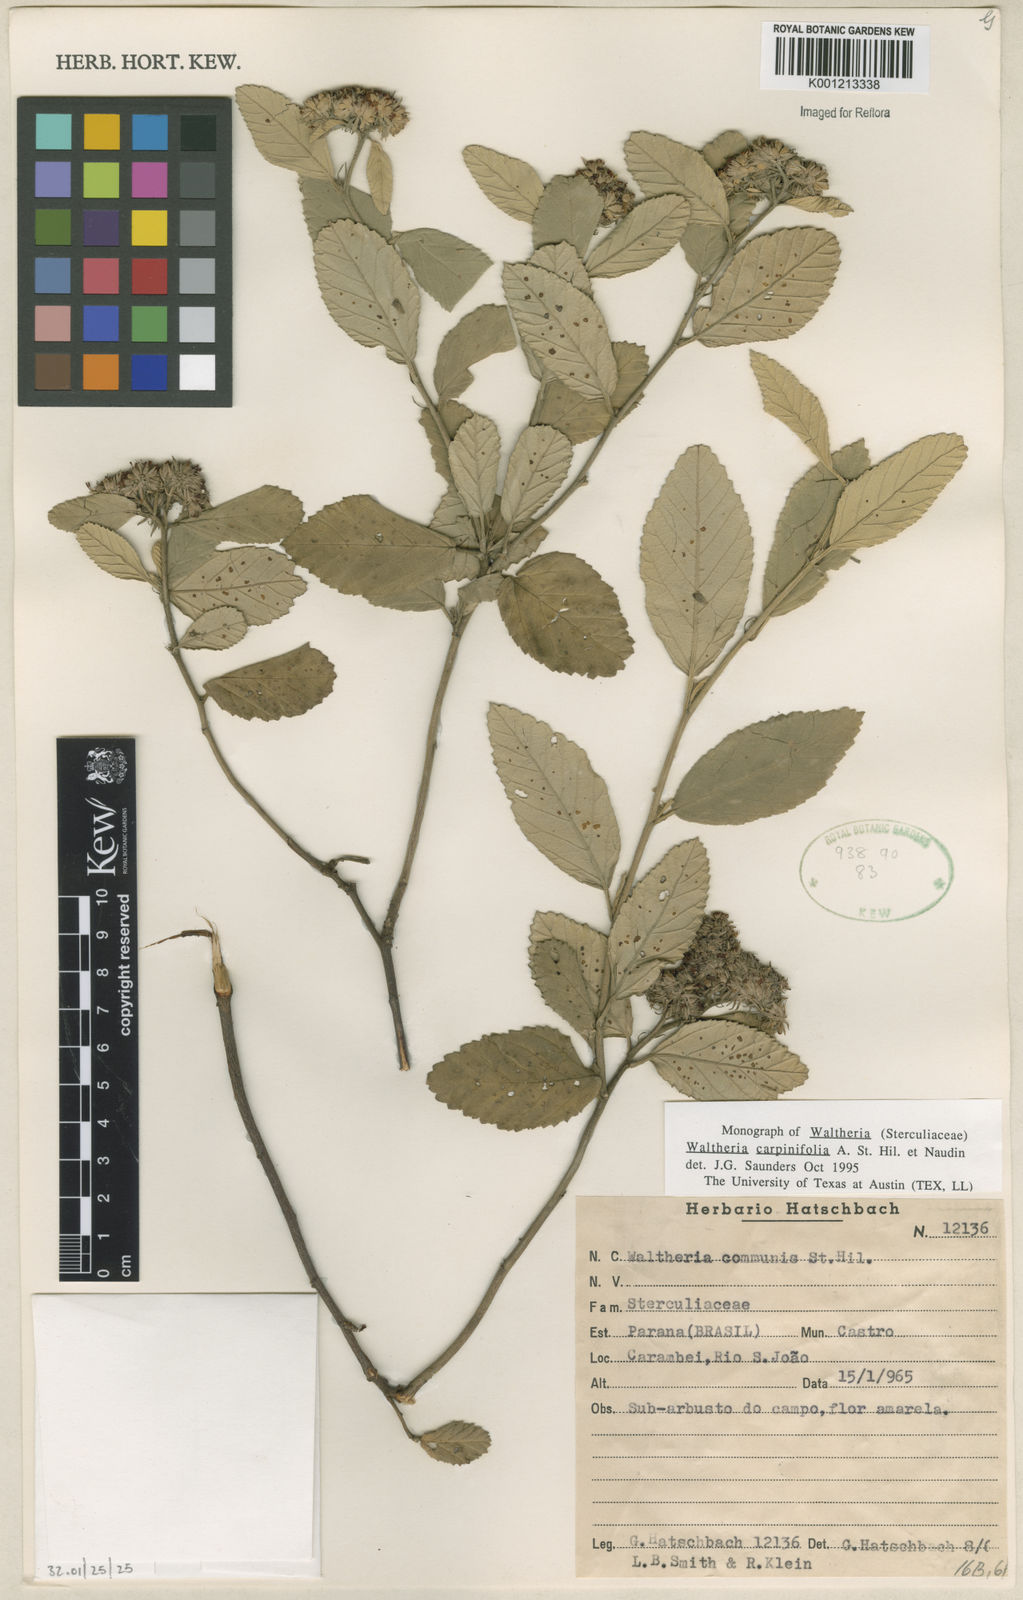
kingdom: Plantae
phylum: Tracheophyta
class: Magnoliopsida
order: Malvales
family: Malvaceae
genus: Waltheria
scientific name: Waltheria carpinifolia
